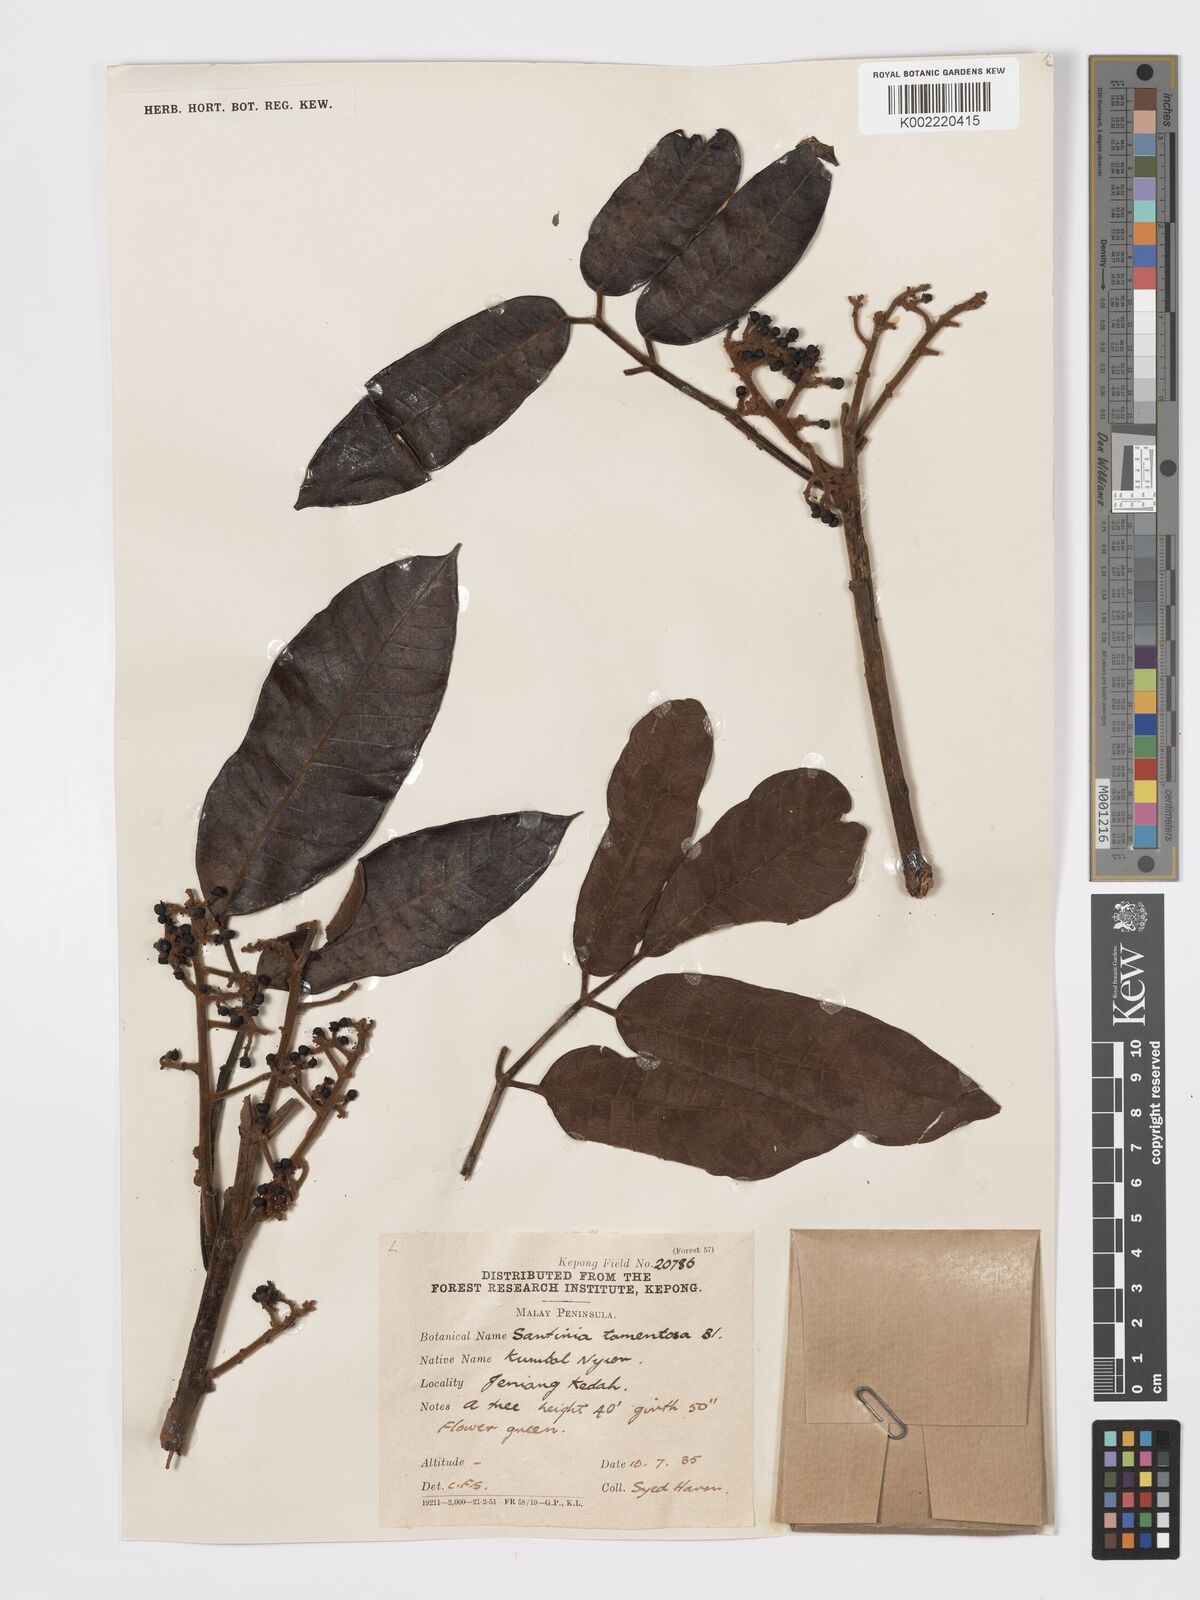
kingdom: Plantae
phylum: Tracheophyta
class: Magnoliopsida
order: Sapindales
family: Burseraceae
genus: Santiria
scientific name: Santiria tomentosa
